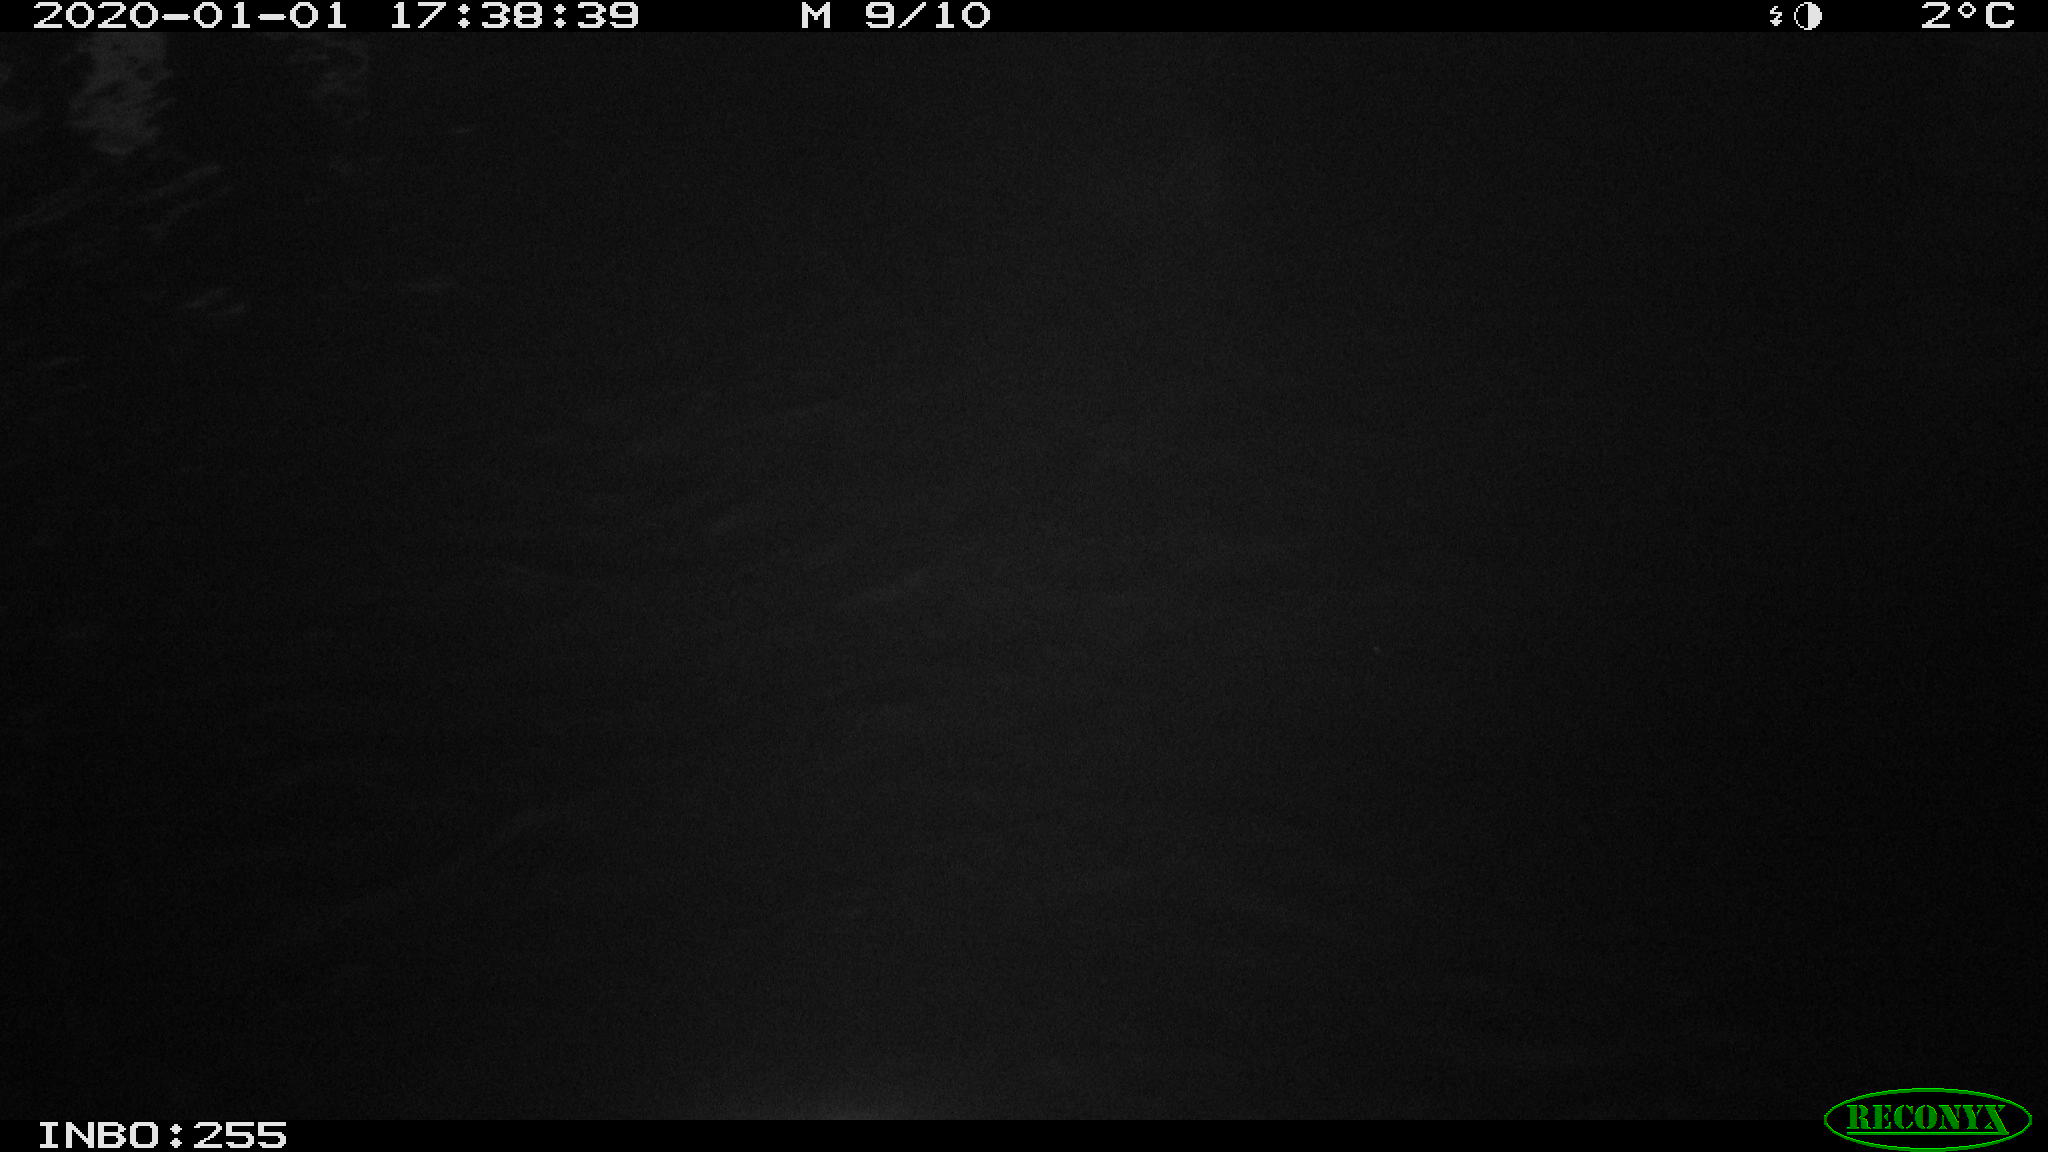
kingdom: Animalia
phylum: Chordata
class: Aves
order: Anseriformes
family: Anatidae
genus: Anas
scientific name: Anas platyrhynchos
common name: Mallard
